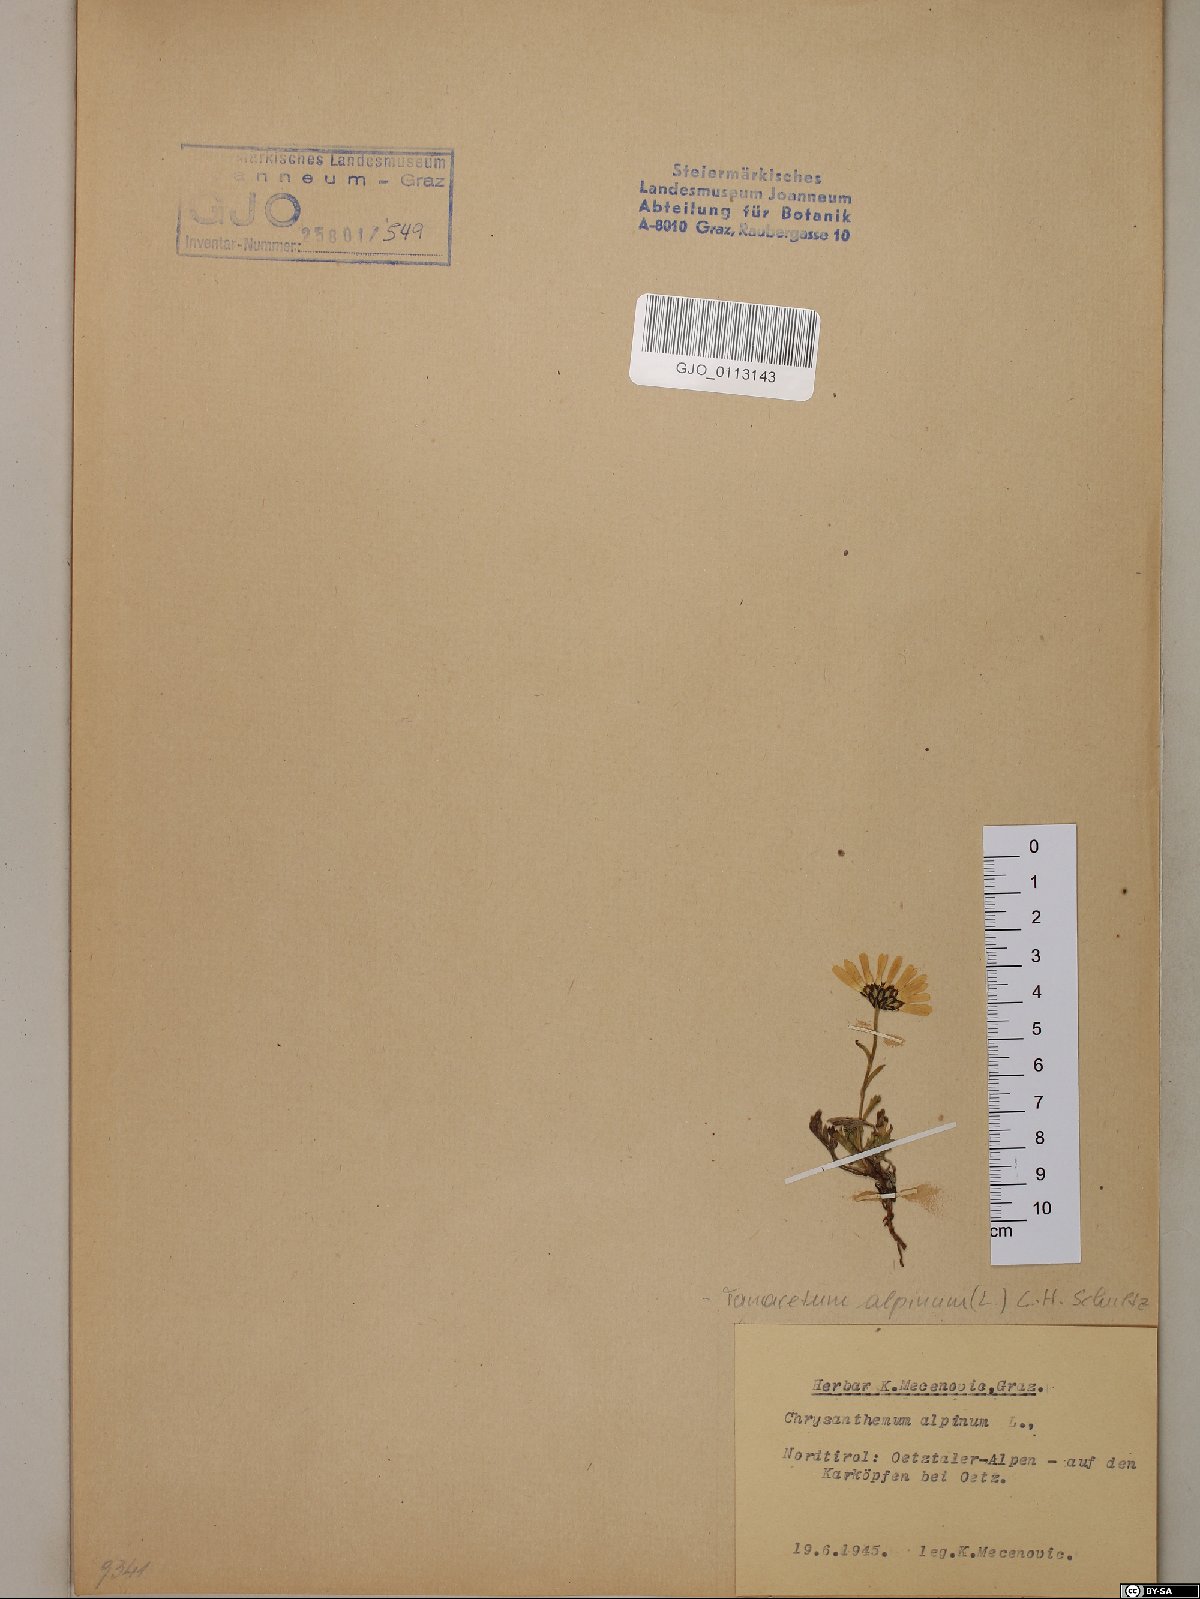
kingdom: Plantae
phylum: Tracheophyta
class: Magnoliopsida
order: Asterales
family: Asteraceae
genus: Leucanthemopsis
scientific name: Leucanthemopsis alpina
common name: Alpine moon daisy
